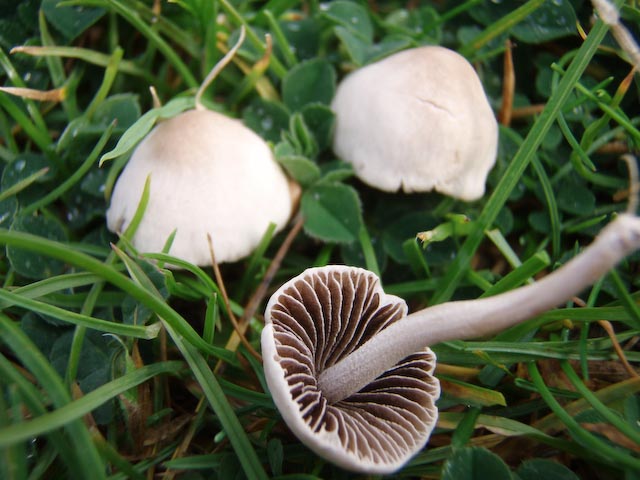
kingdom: Fungi
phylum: Basidiomycota
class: Agaricomycetes
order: Agaricales
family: Bolbitiaceae
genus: Panaeolina
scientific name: Panaeolina foenisecii
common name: høslætsvamp
